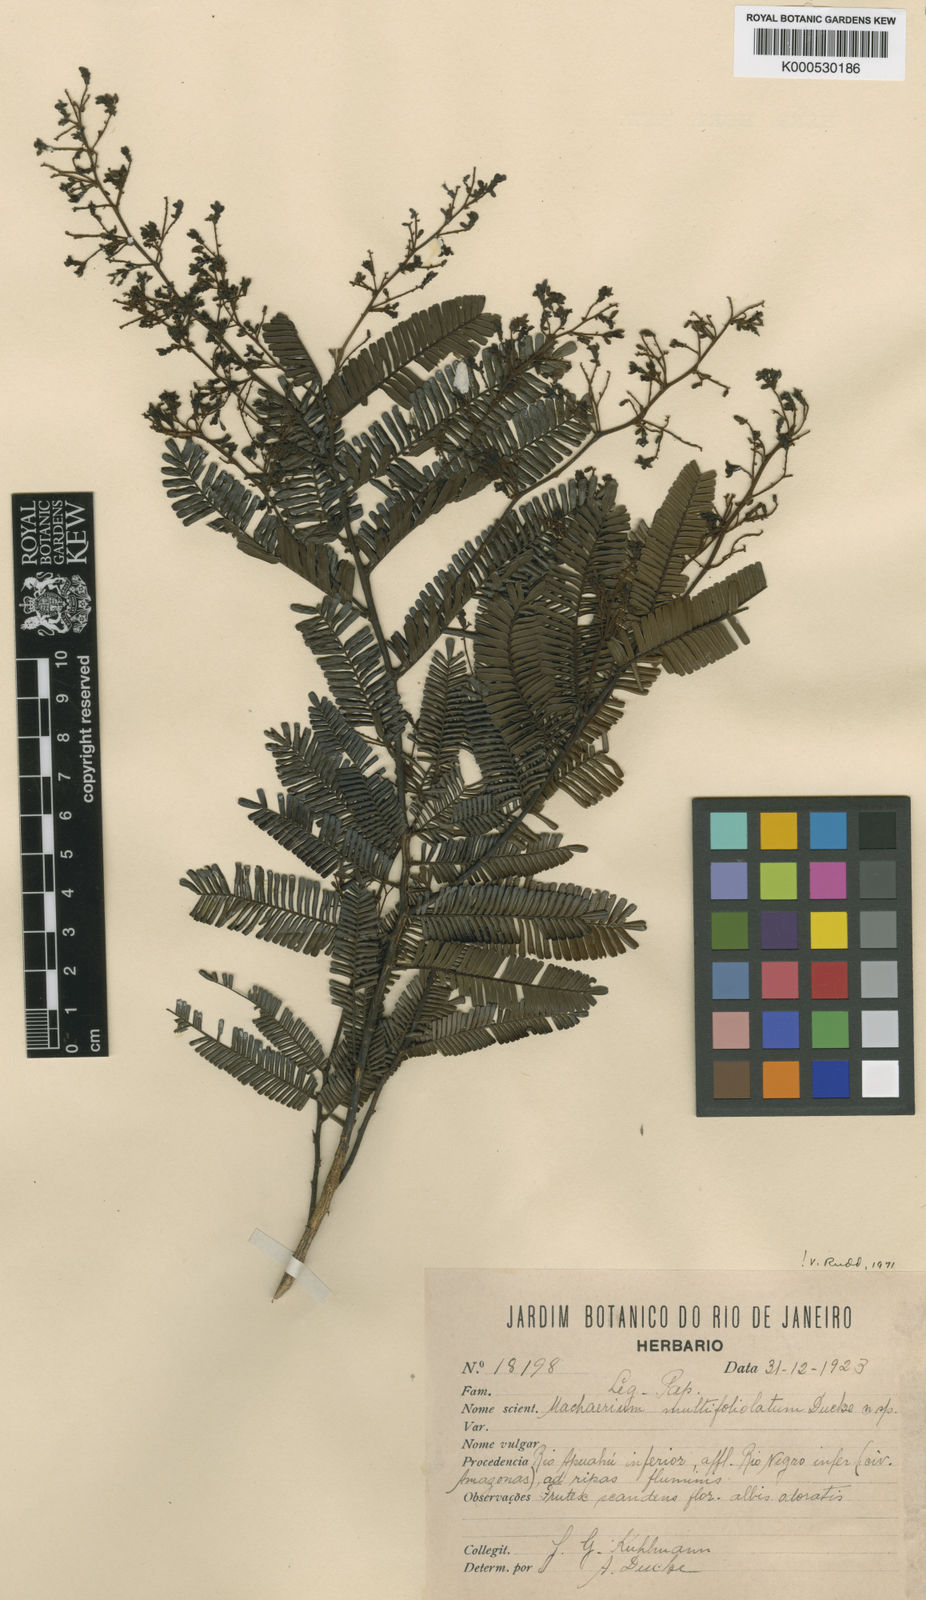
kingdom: Plantae
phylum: Tracheophyta
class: Magnoliopsida
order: Fabales
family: Fabaceae
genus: Machaerium
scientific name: Machaerium multifoliolatum
